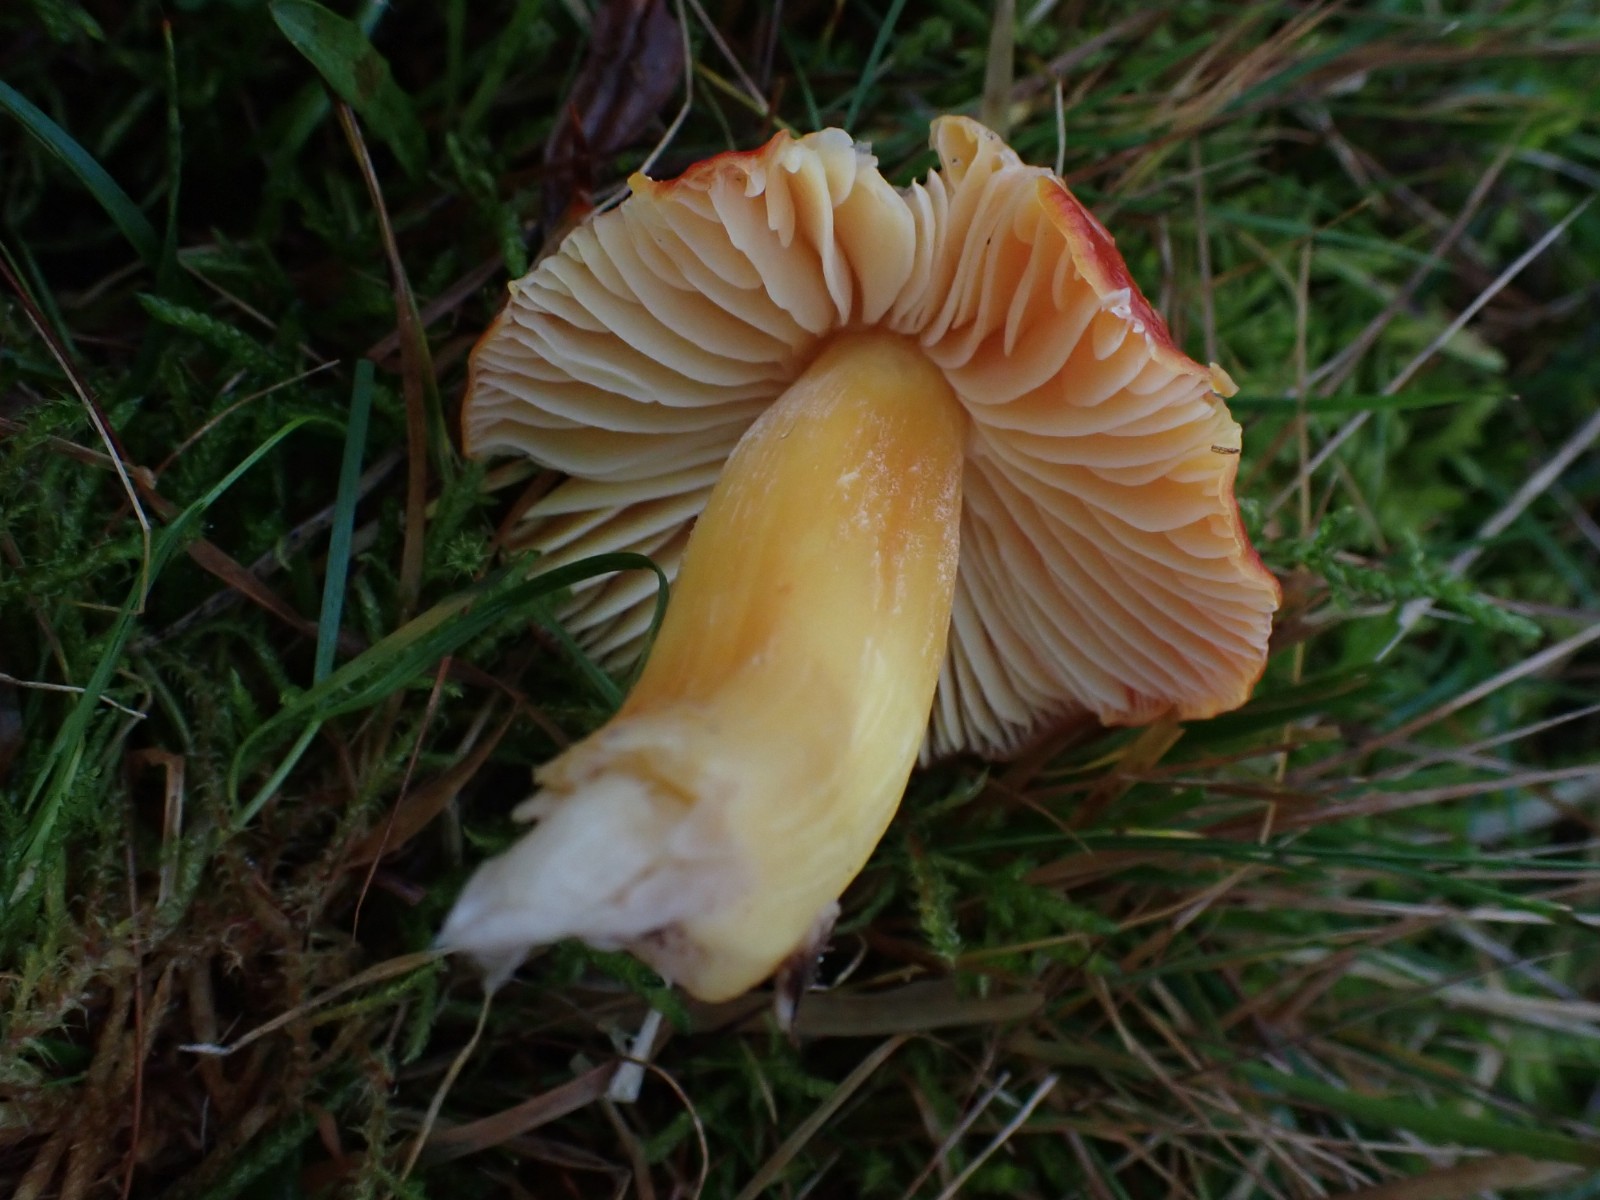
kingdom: Fungi
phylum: Basidiomycota
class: Agaricomycetes
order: Agaricales
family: Hygrophoraceae
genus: Hygrocybe
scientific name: Hygrocybe punicea
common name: skarlagen-vokshat
